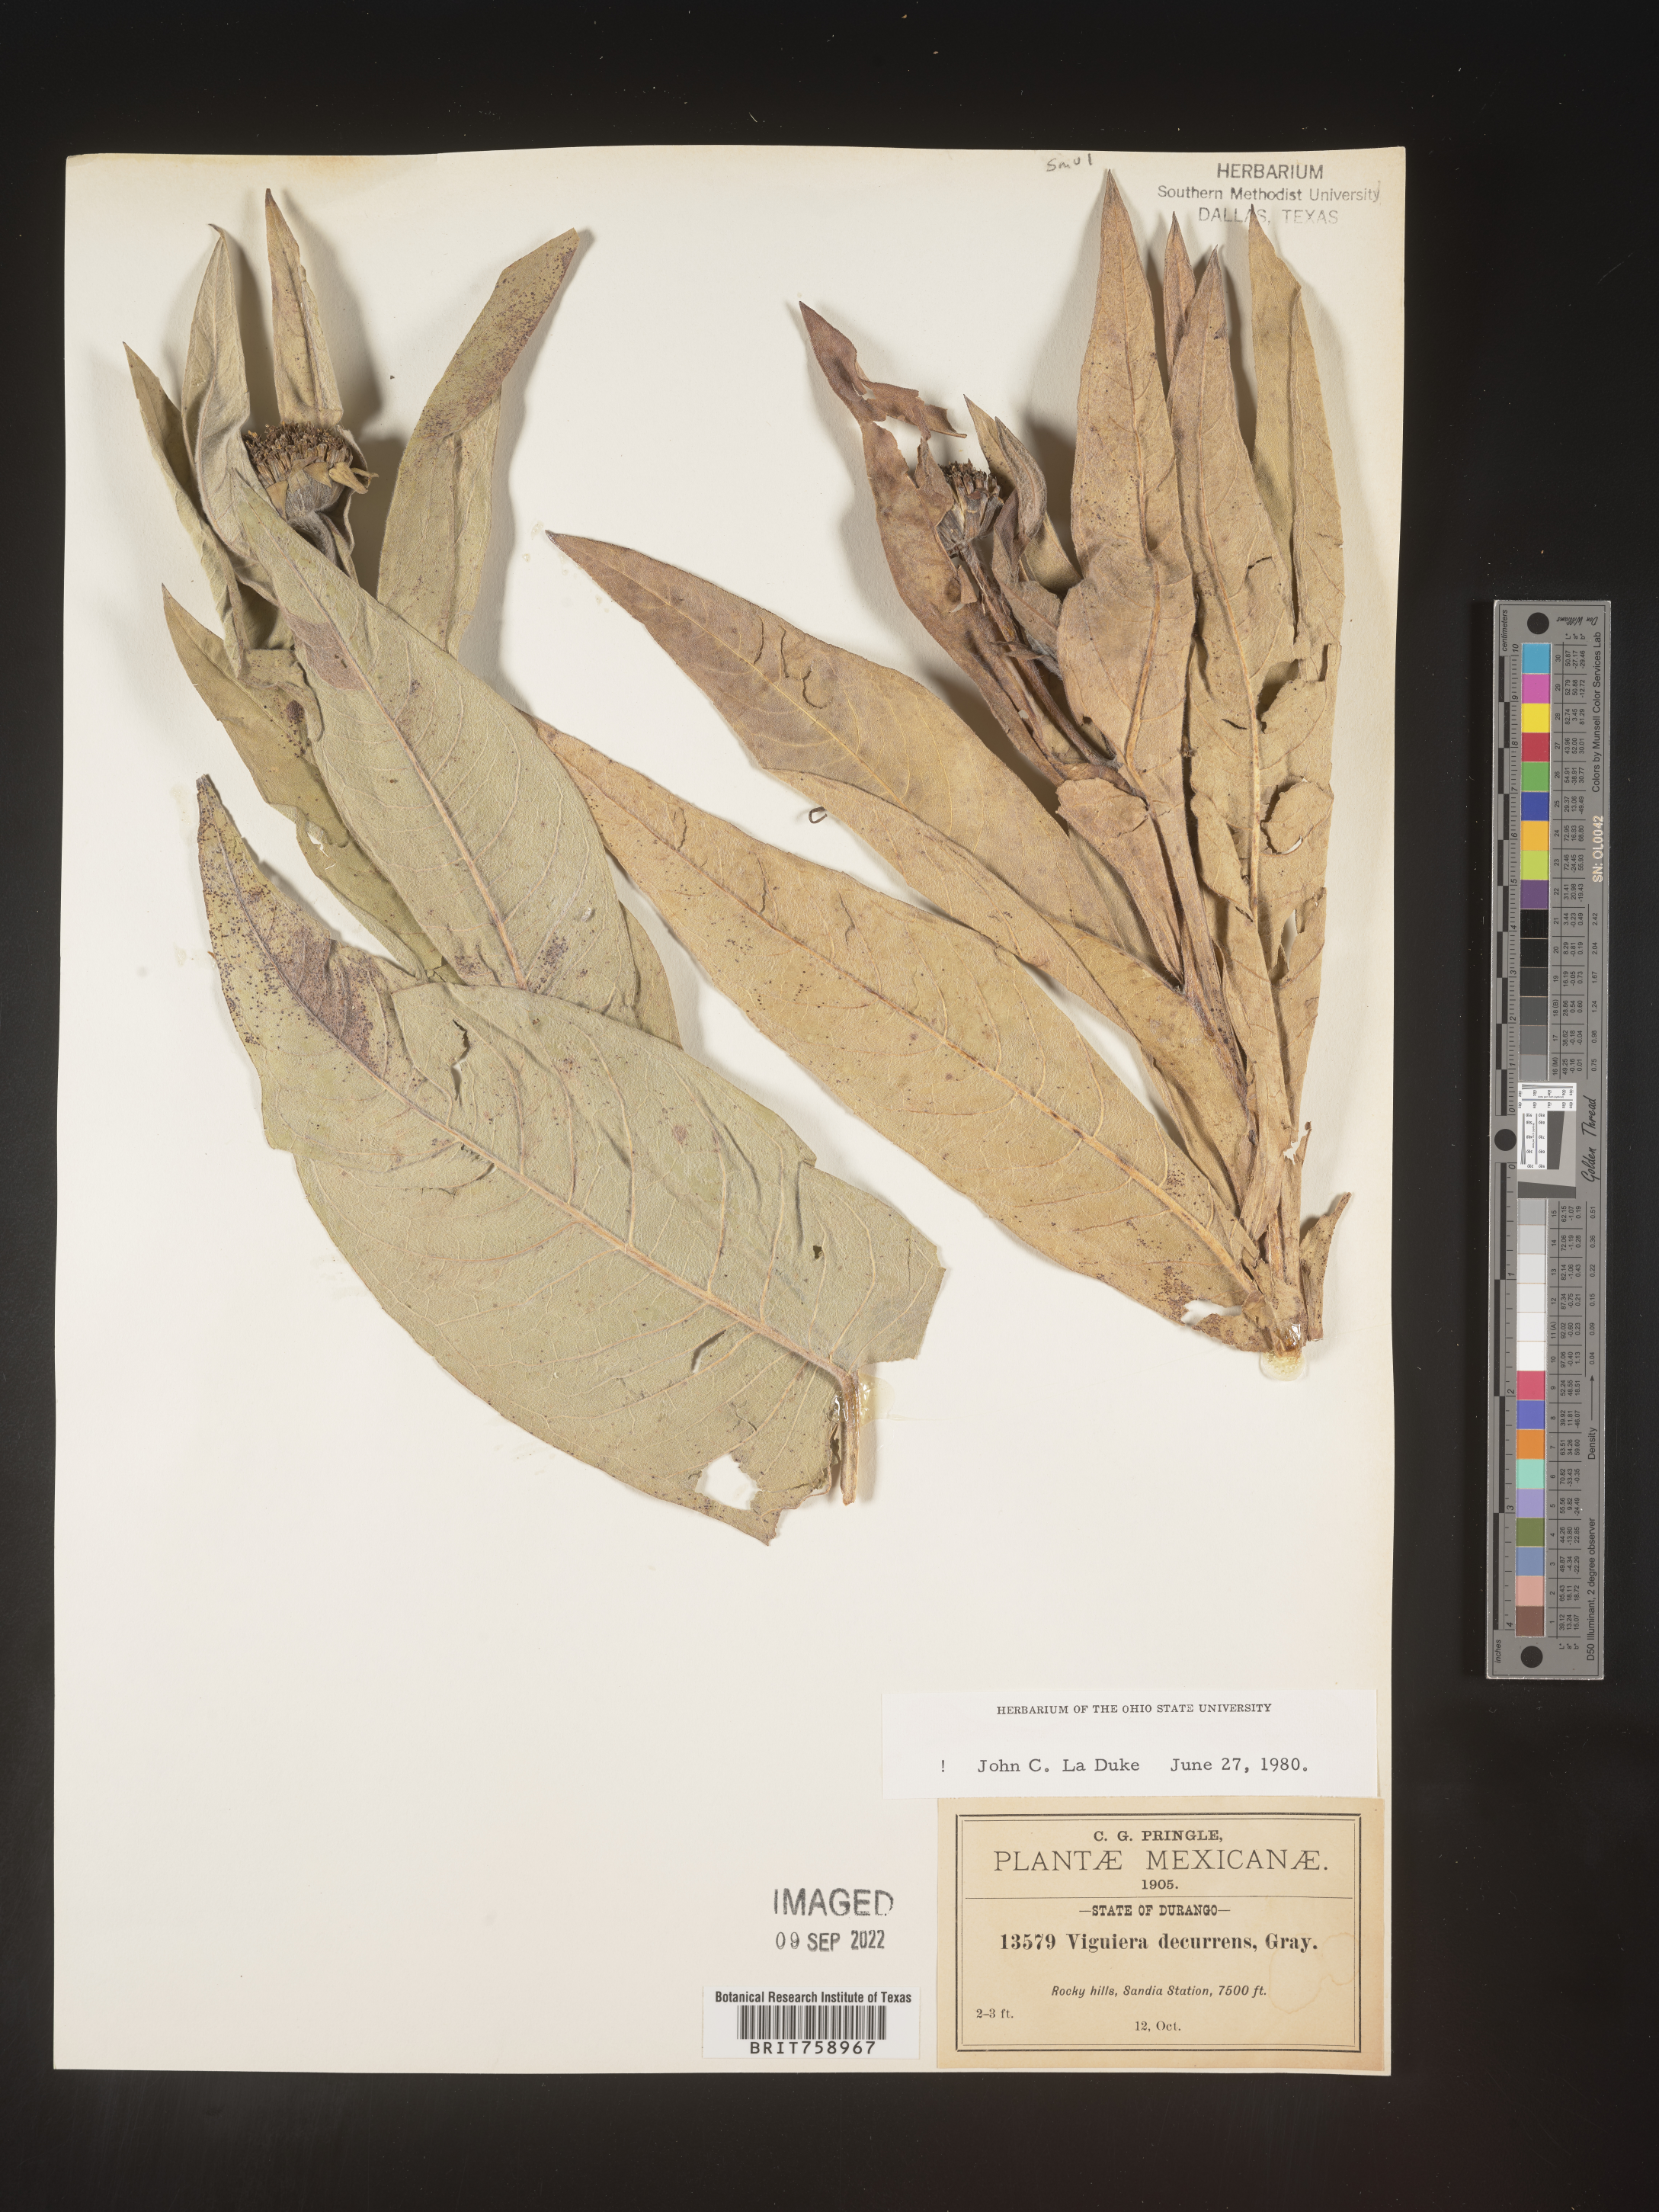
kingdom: Plantae
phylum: Tracheophyta
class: Magnoliopsida
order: Asterales
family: Asteraceae
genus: Viguiera
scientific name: Viguiera
